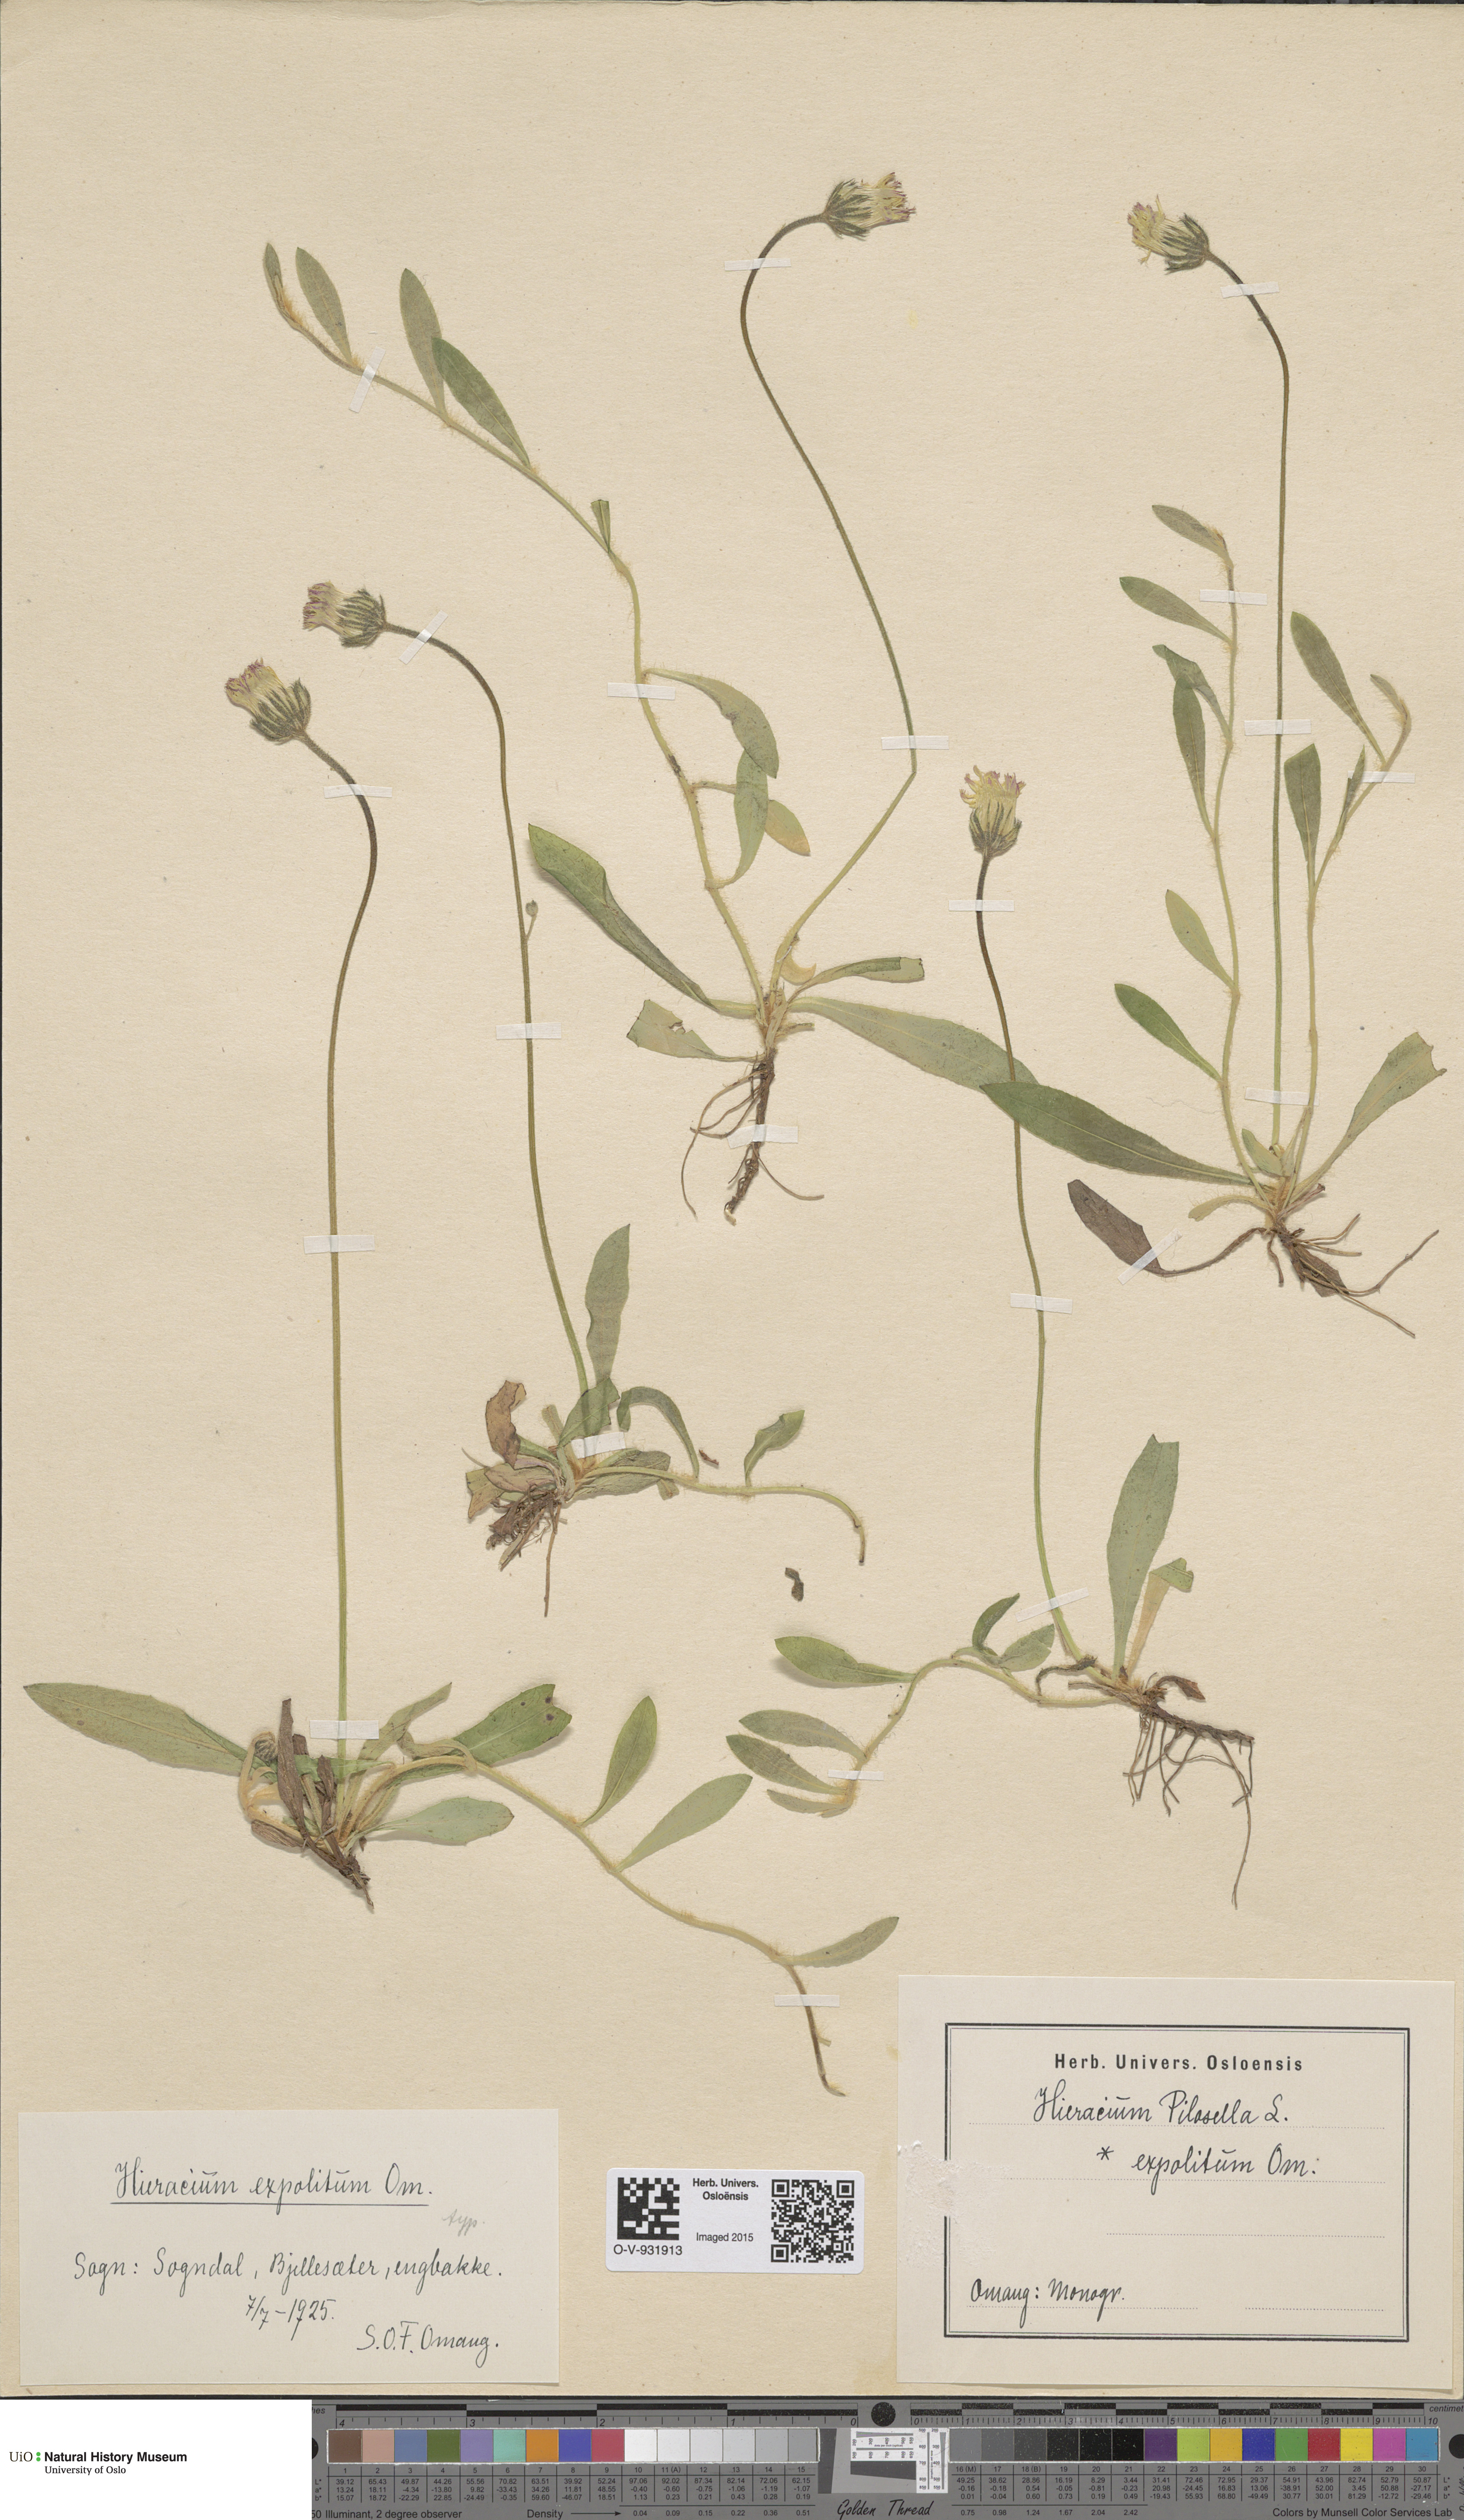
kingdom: Plantae
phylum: Tracheophyta
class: Magnoliopsida
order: Asterales
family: Asteraceae
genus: Pilosella
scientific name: Pilosella officinarum
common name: Mouse-ear hawkweed
